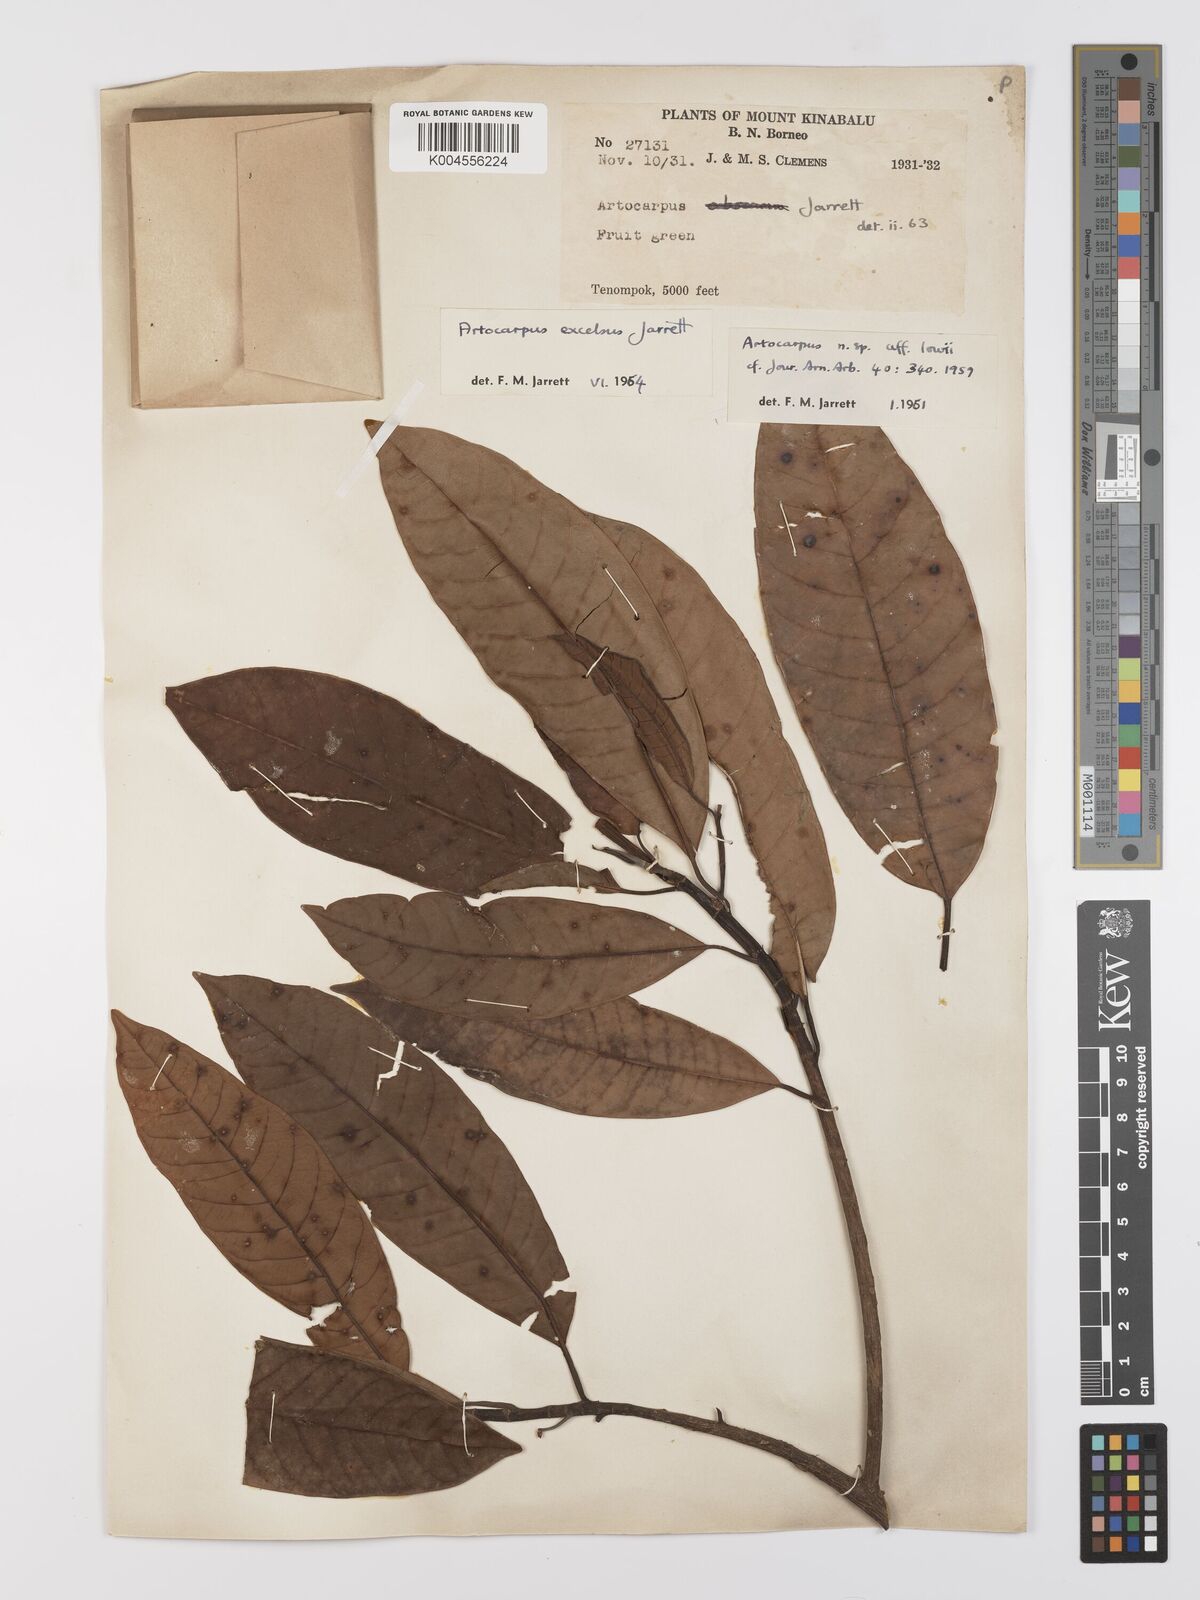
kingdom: Plantae
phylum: Tracheophyta
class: Magnoliopsida
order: Rosales
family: Moraceae
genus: Artocarpus
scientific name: Artocarpus excelsus
